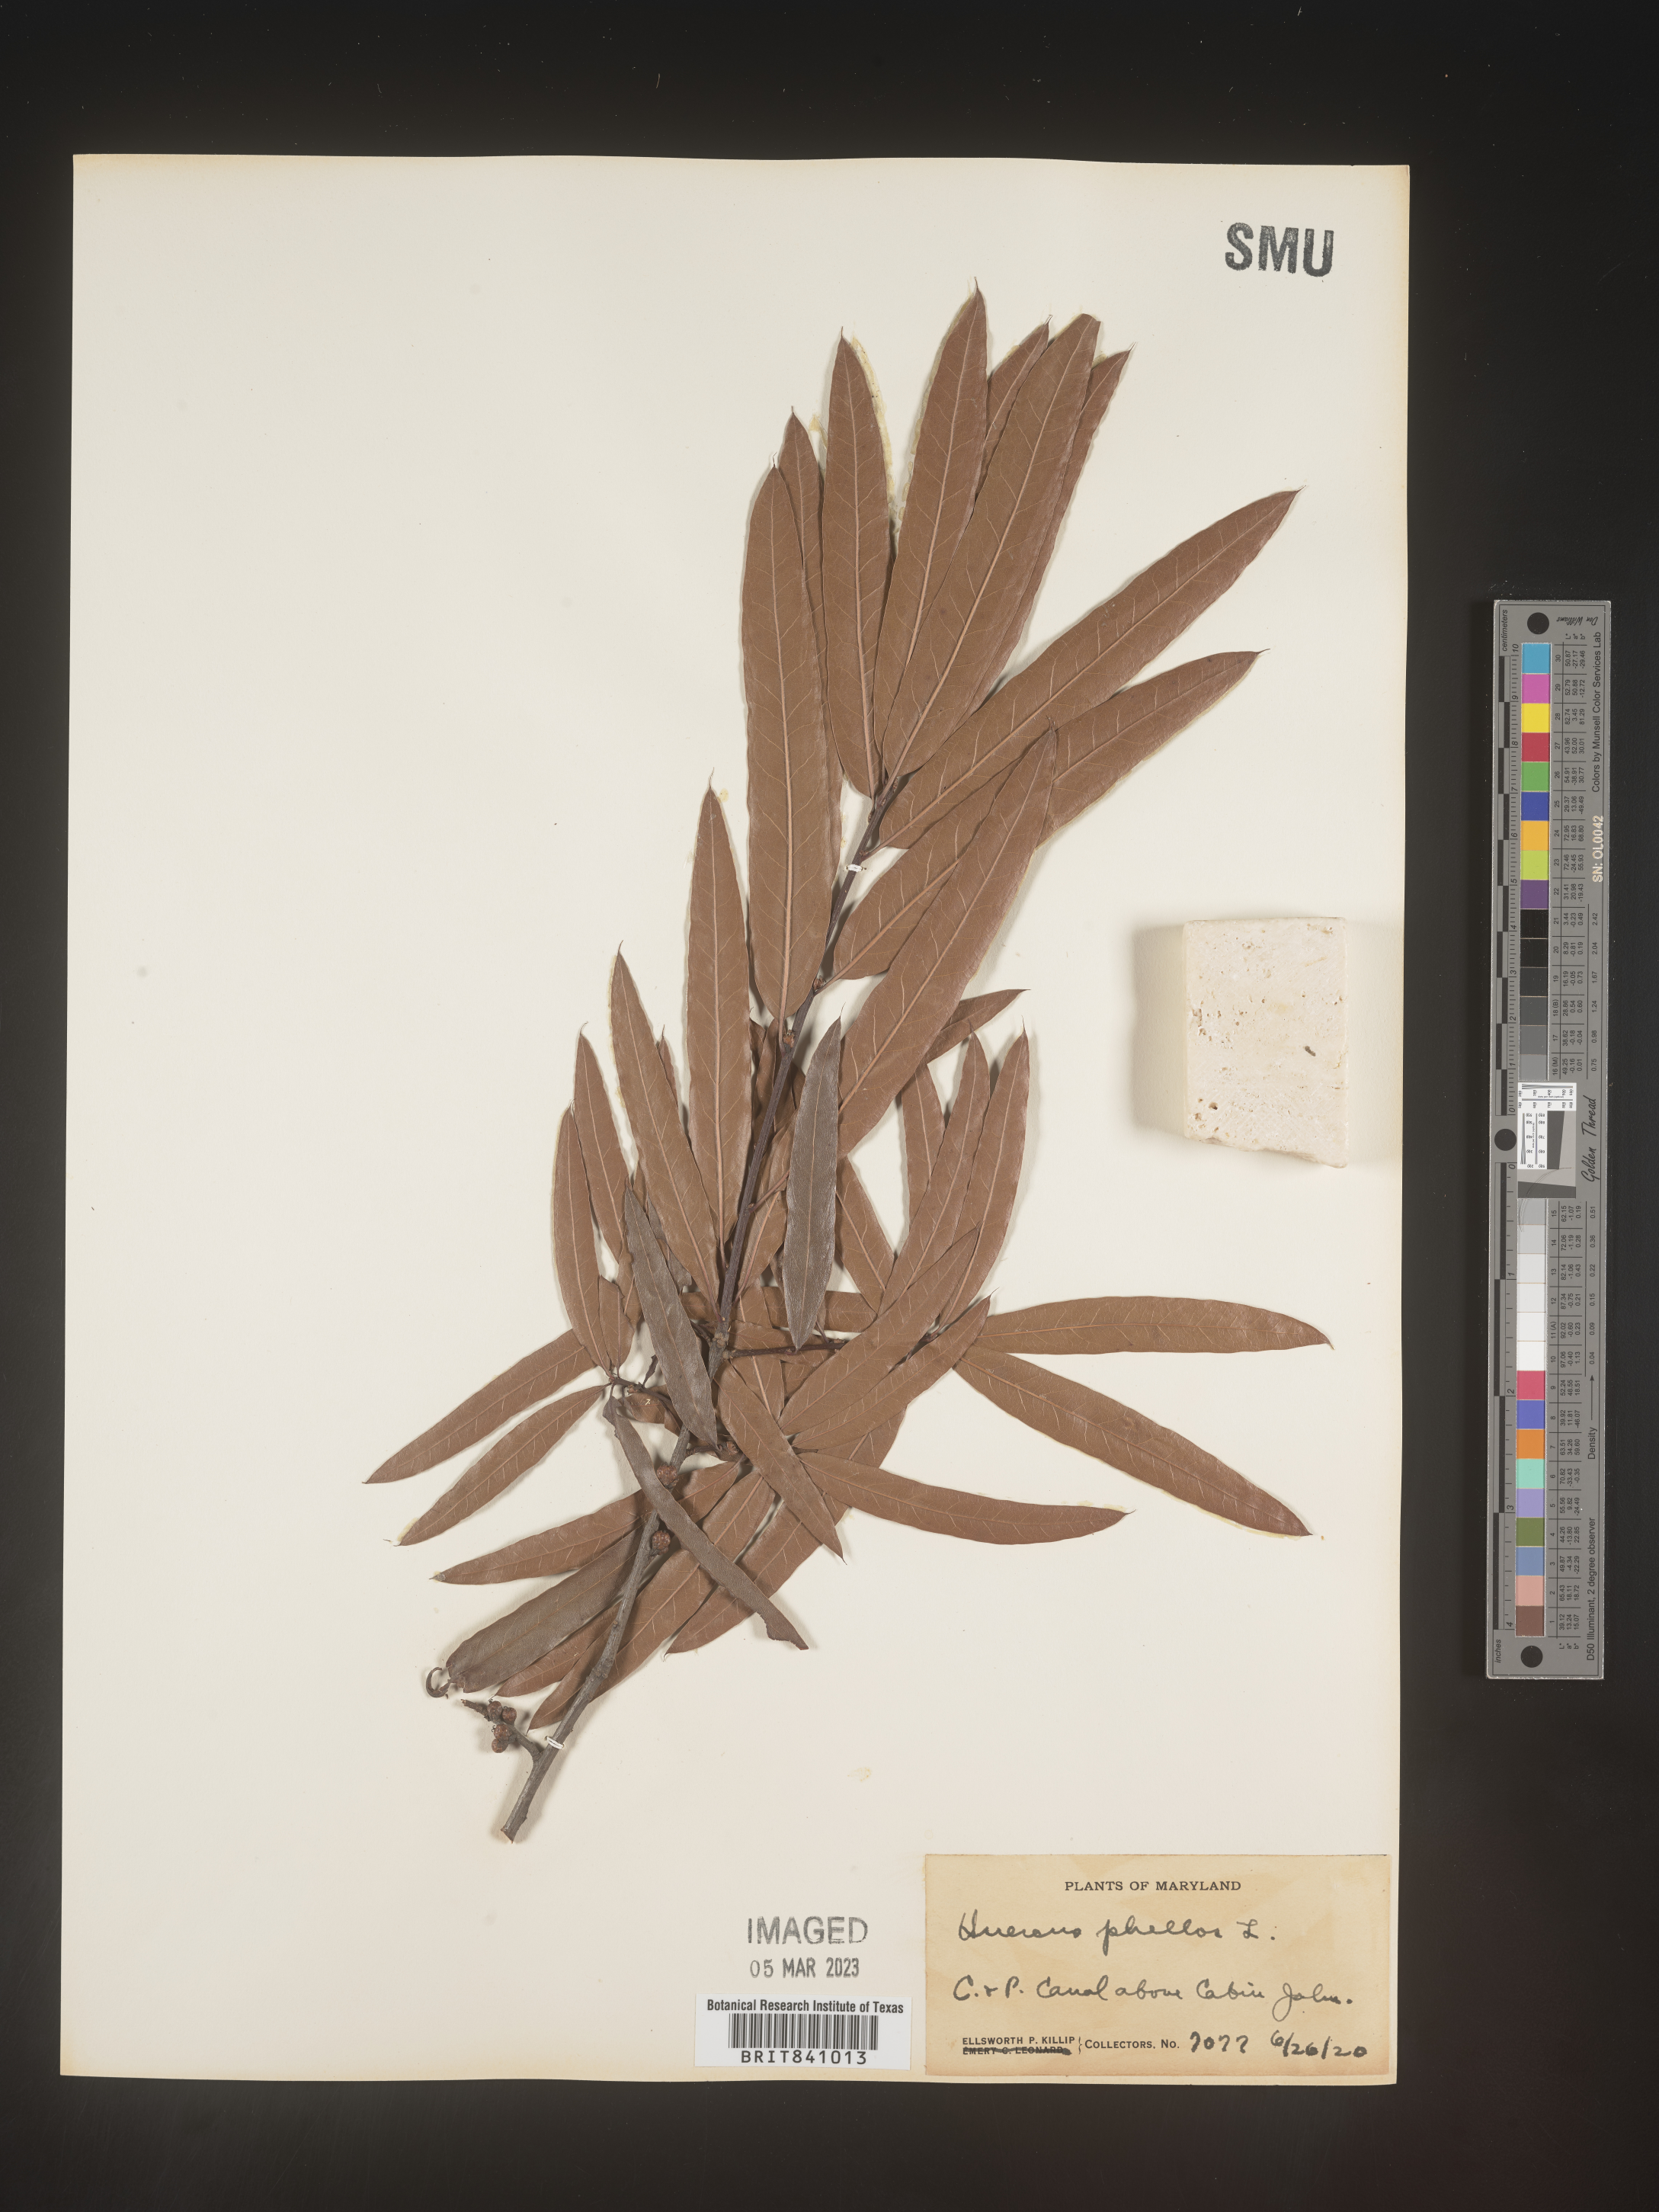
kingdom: Plantae
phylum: Tracheophyta
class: Magnoliopsida
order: Fagales
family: Fagaceae
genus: Quercus
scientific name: Quercus phellos
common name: Willow oak
